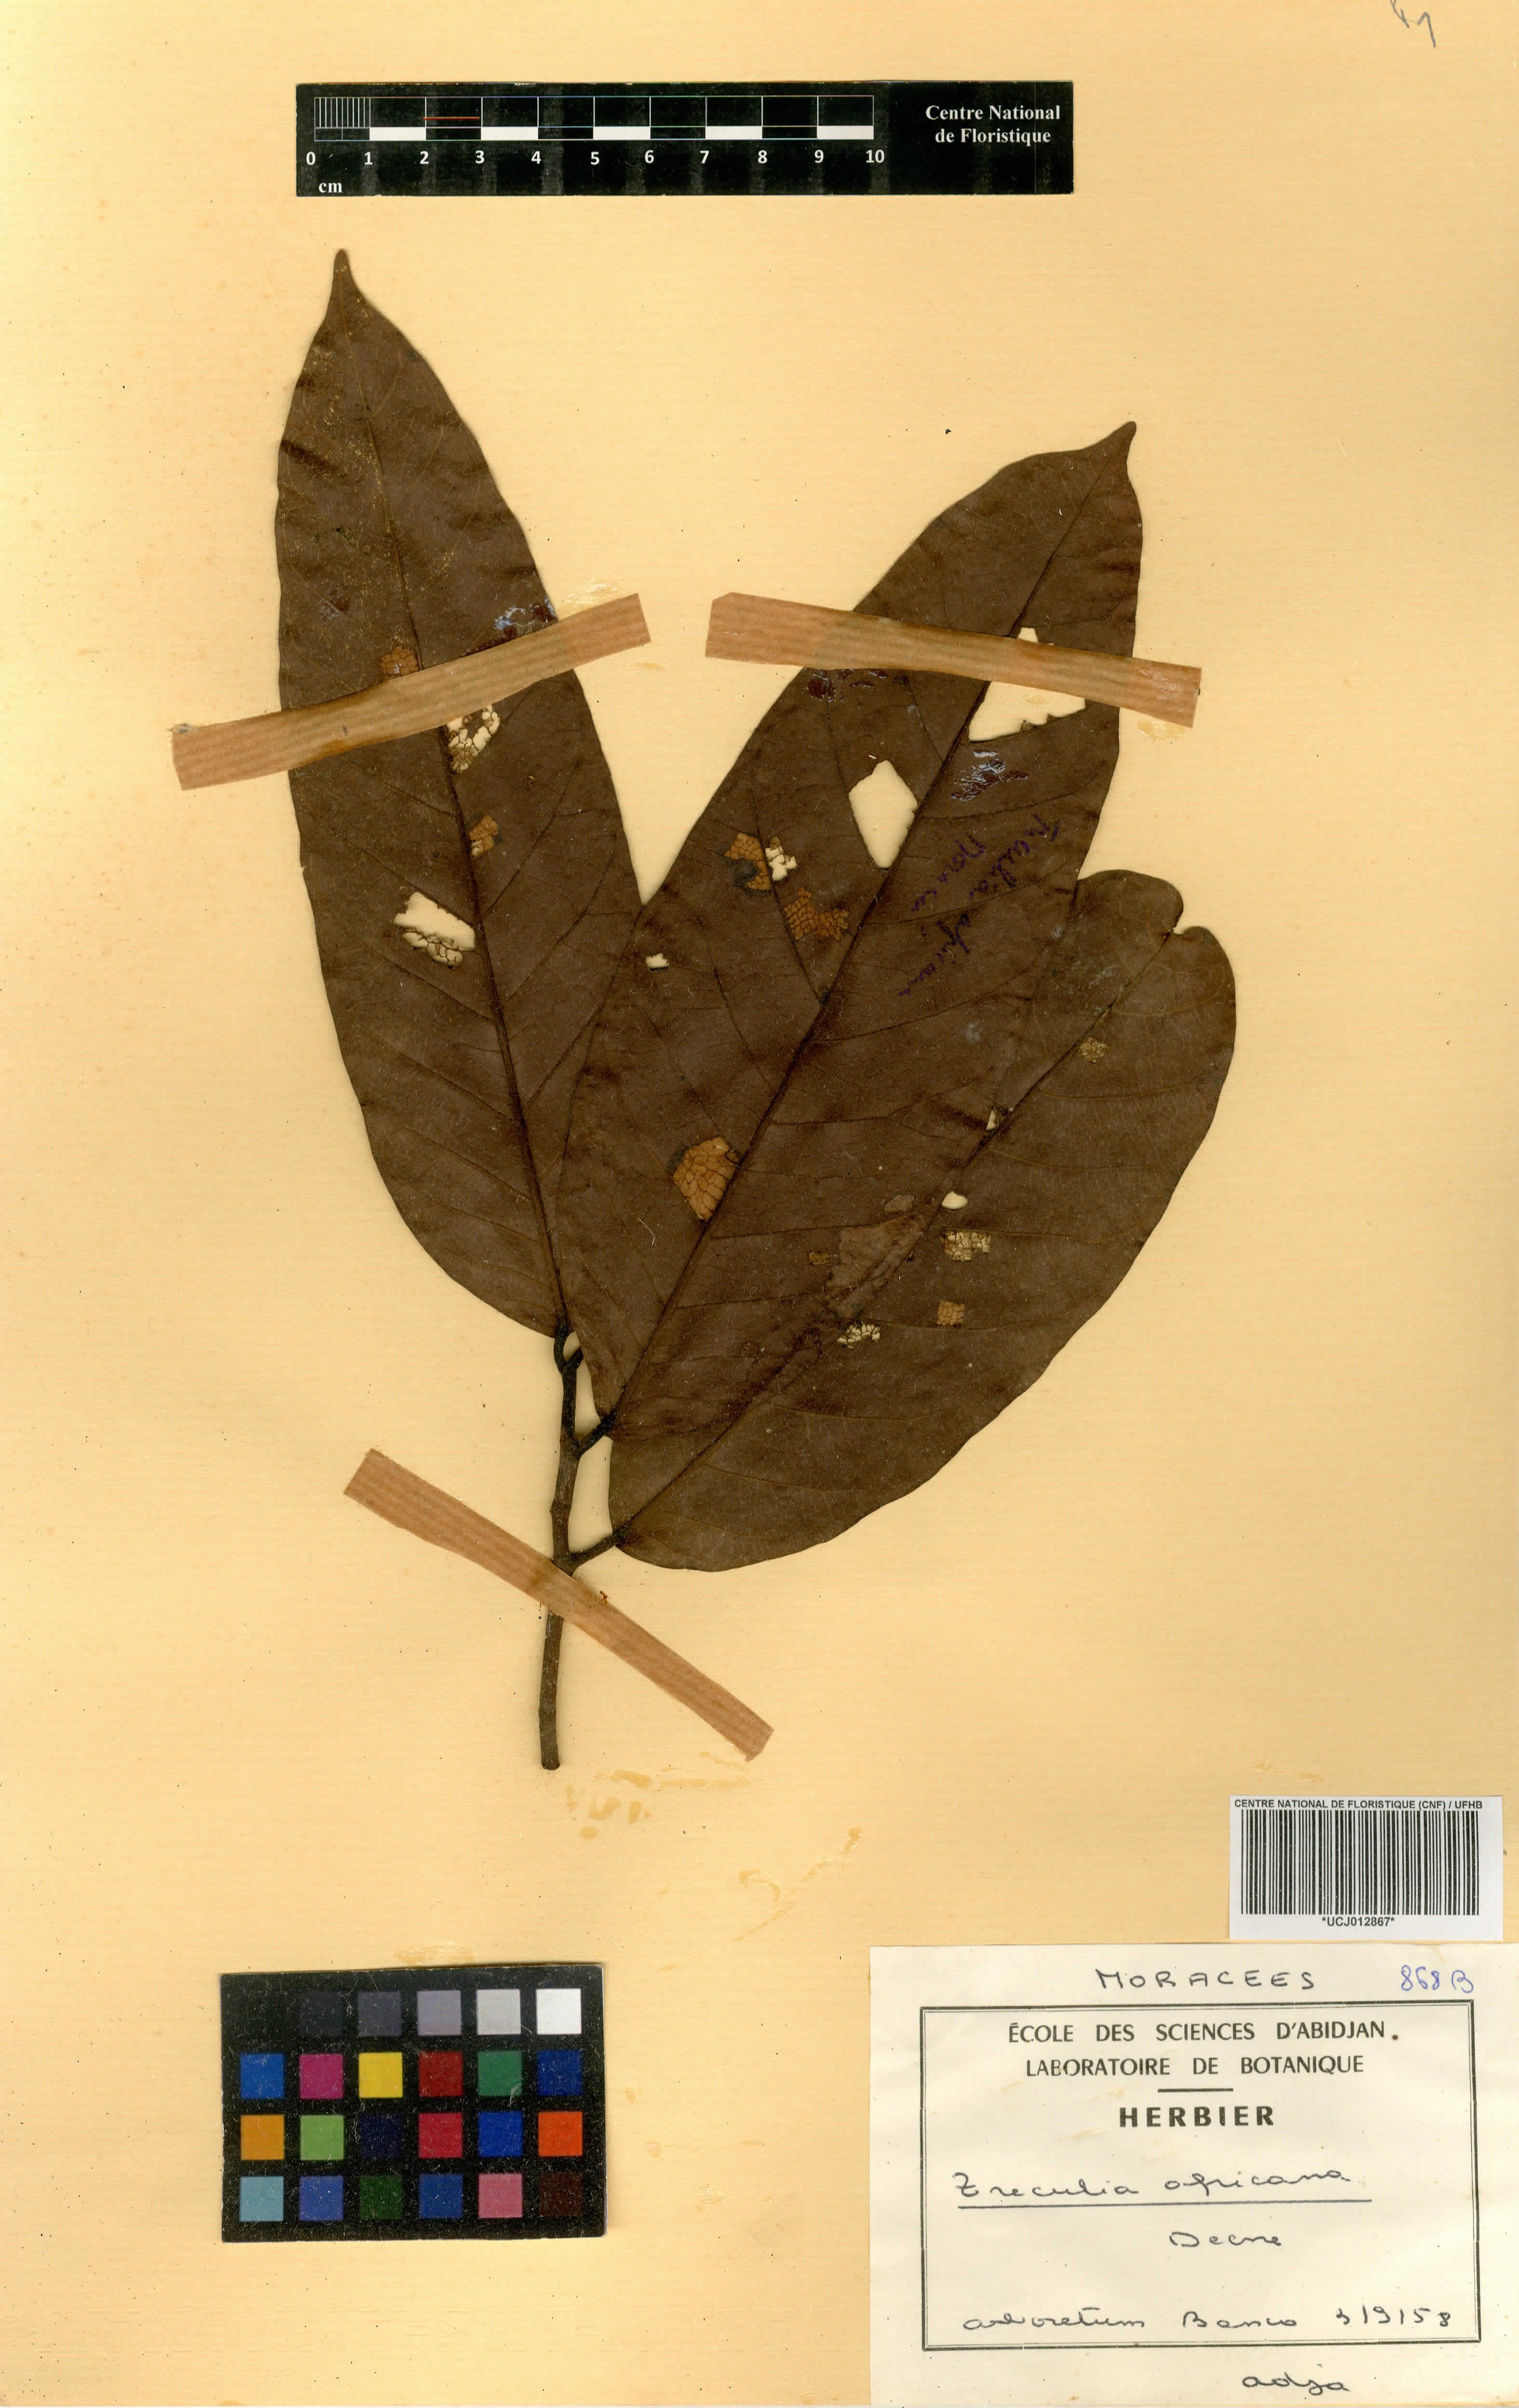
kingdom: Plantae
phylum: Tracheophyta
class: Magnoliopsida
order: Rosales
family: Moraceae
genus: Treculia
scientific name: Treculia africana
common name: African breadfruit
